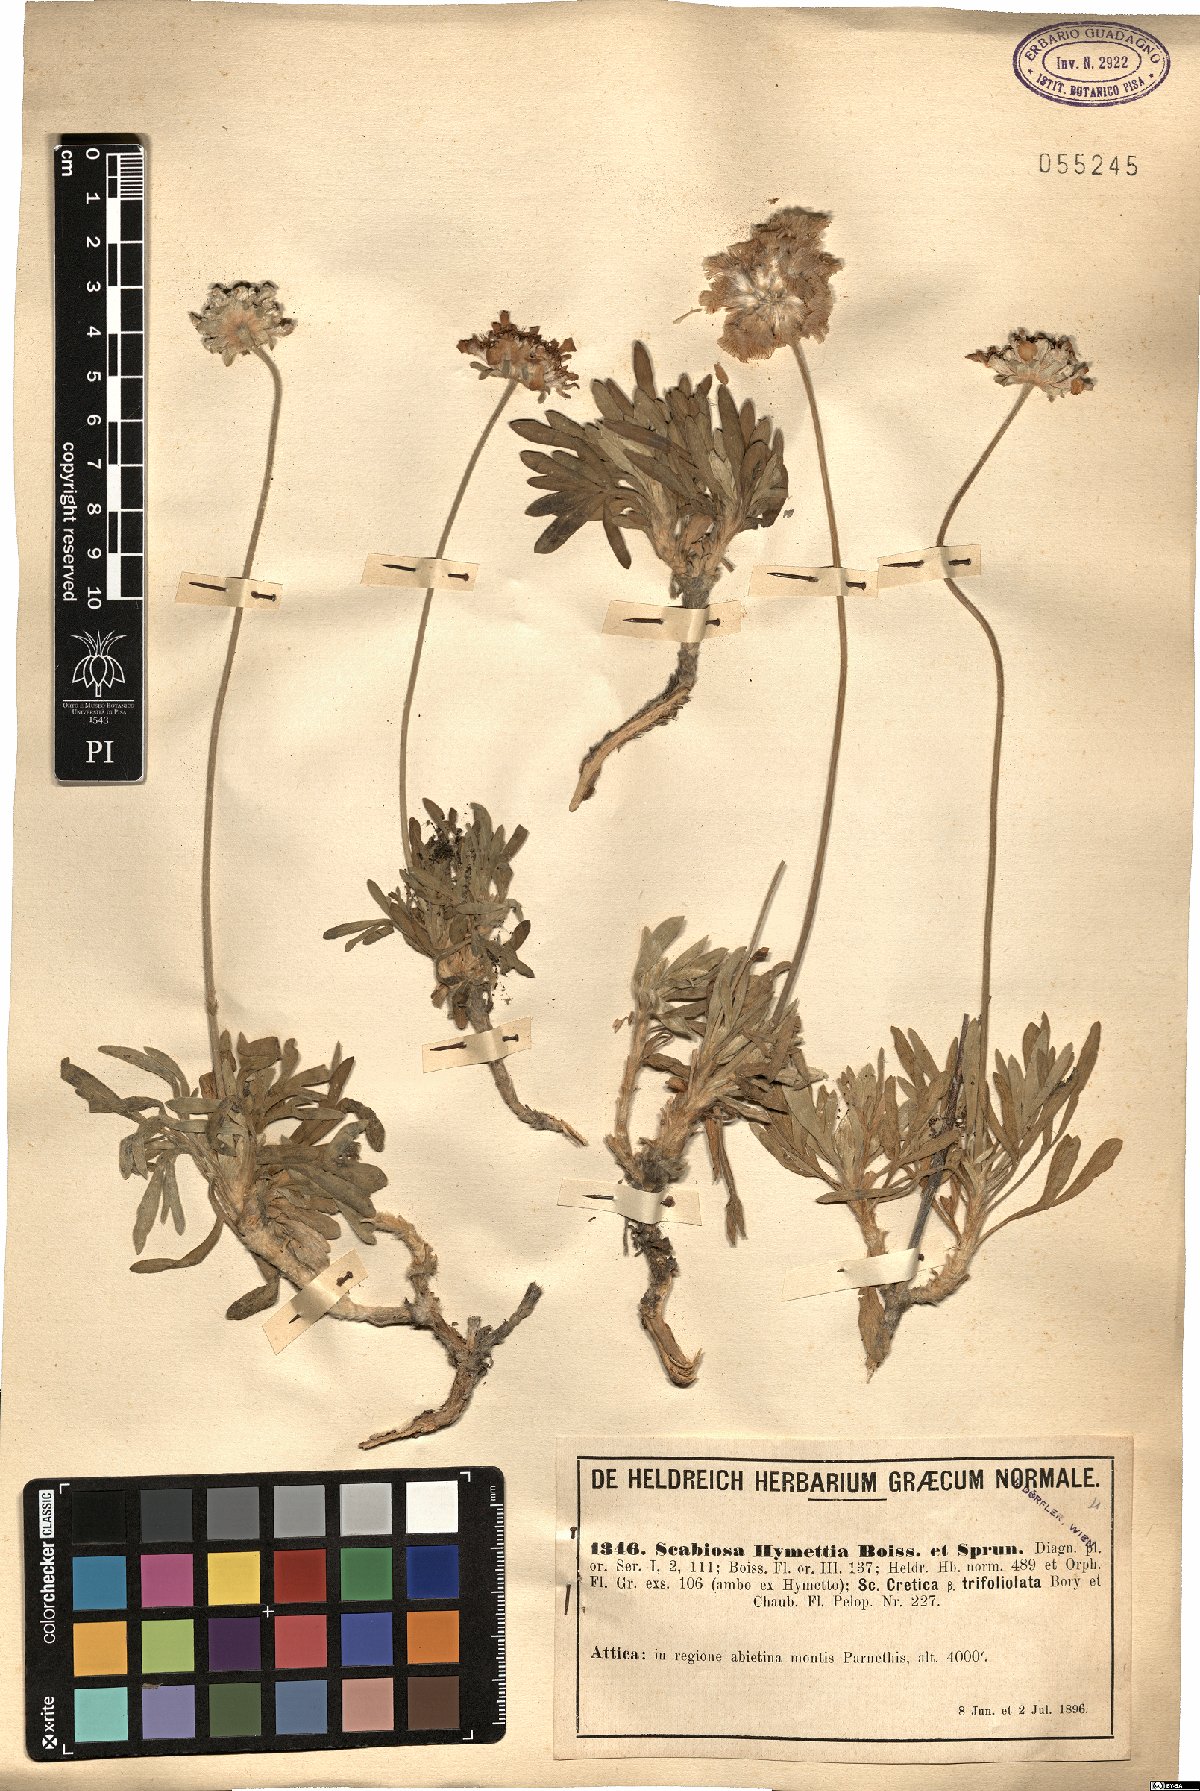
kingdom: Plantae
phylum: Tracheophyta
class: Magnoliopsida
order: Dipsacales
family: Caprifoliaceae
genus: Lomelosia
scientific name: Lomelosia hymettia
